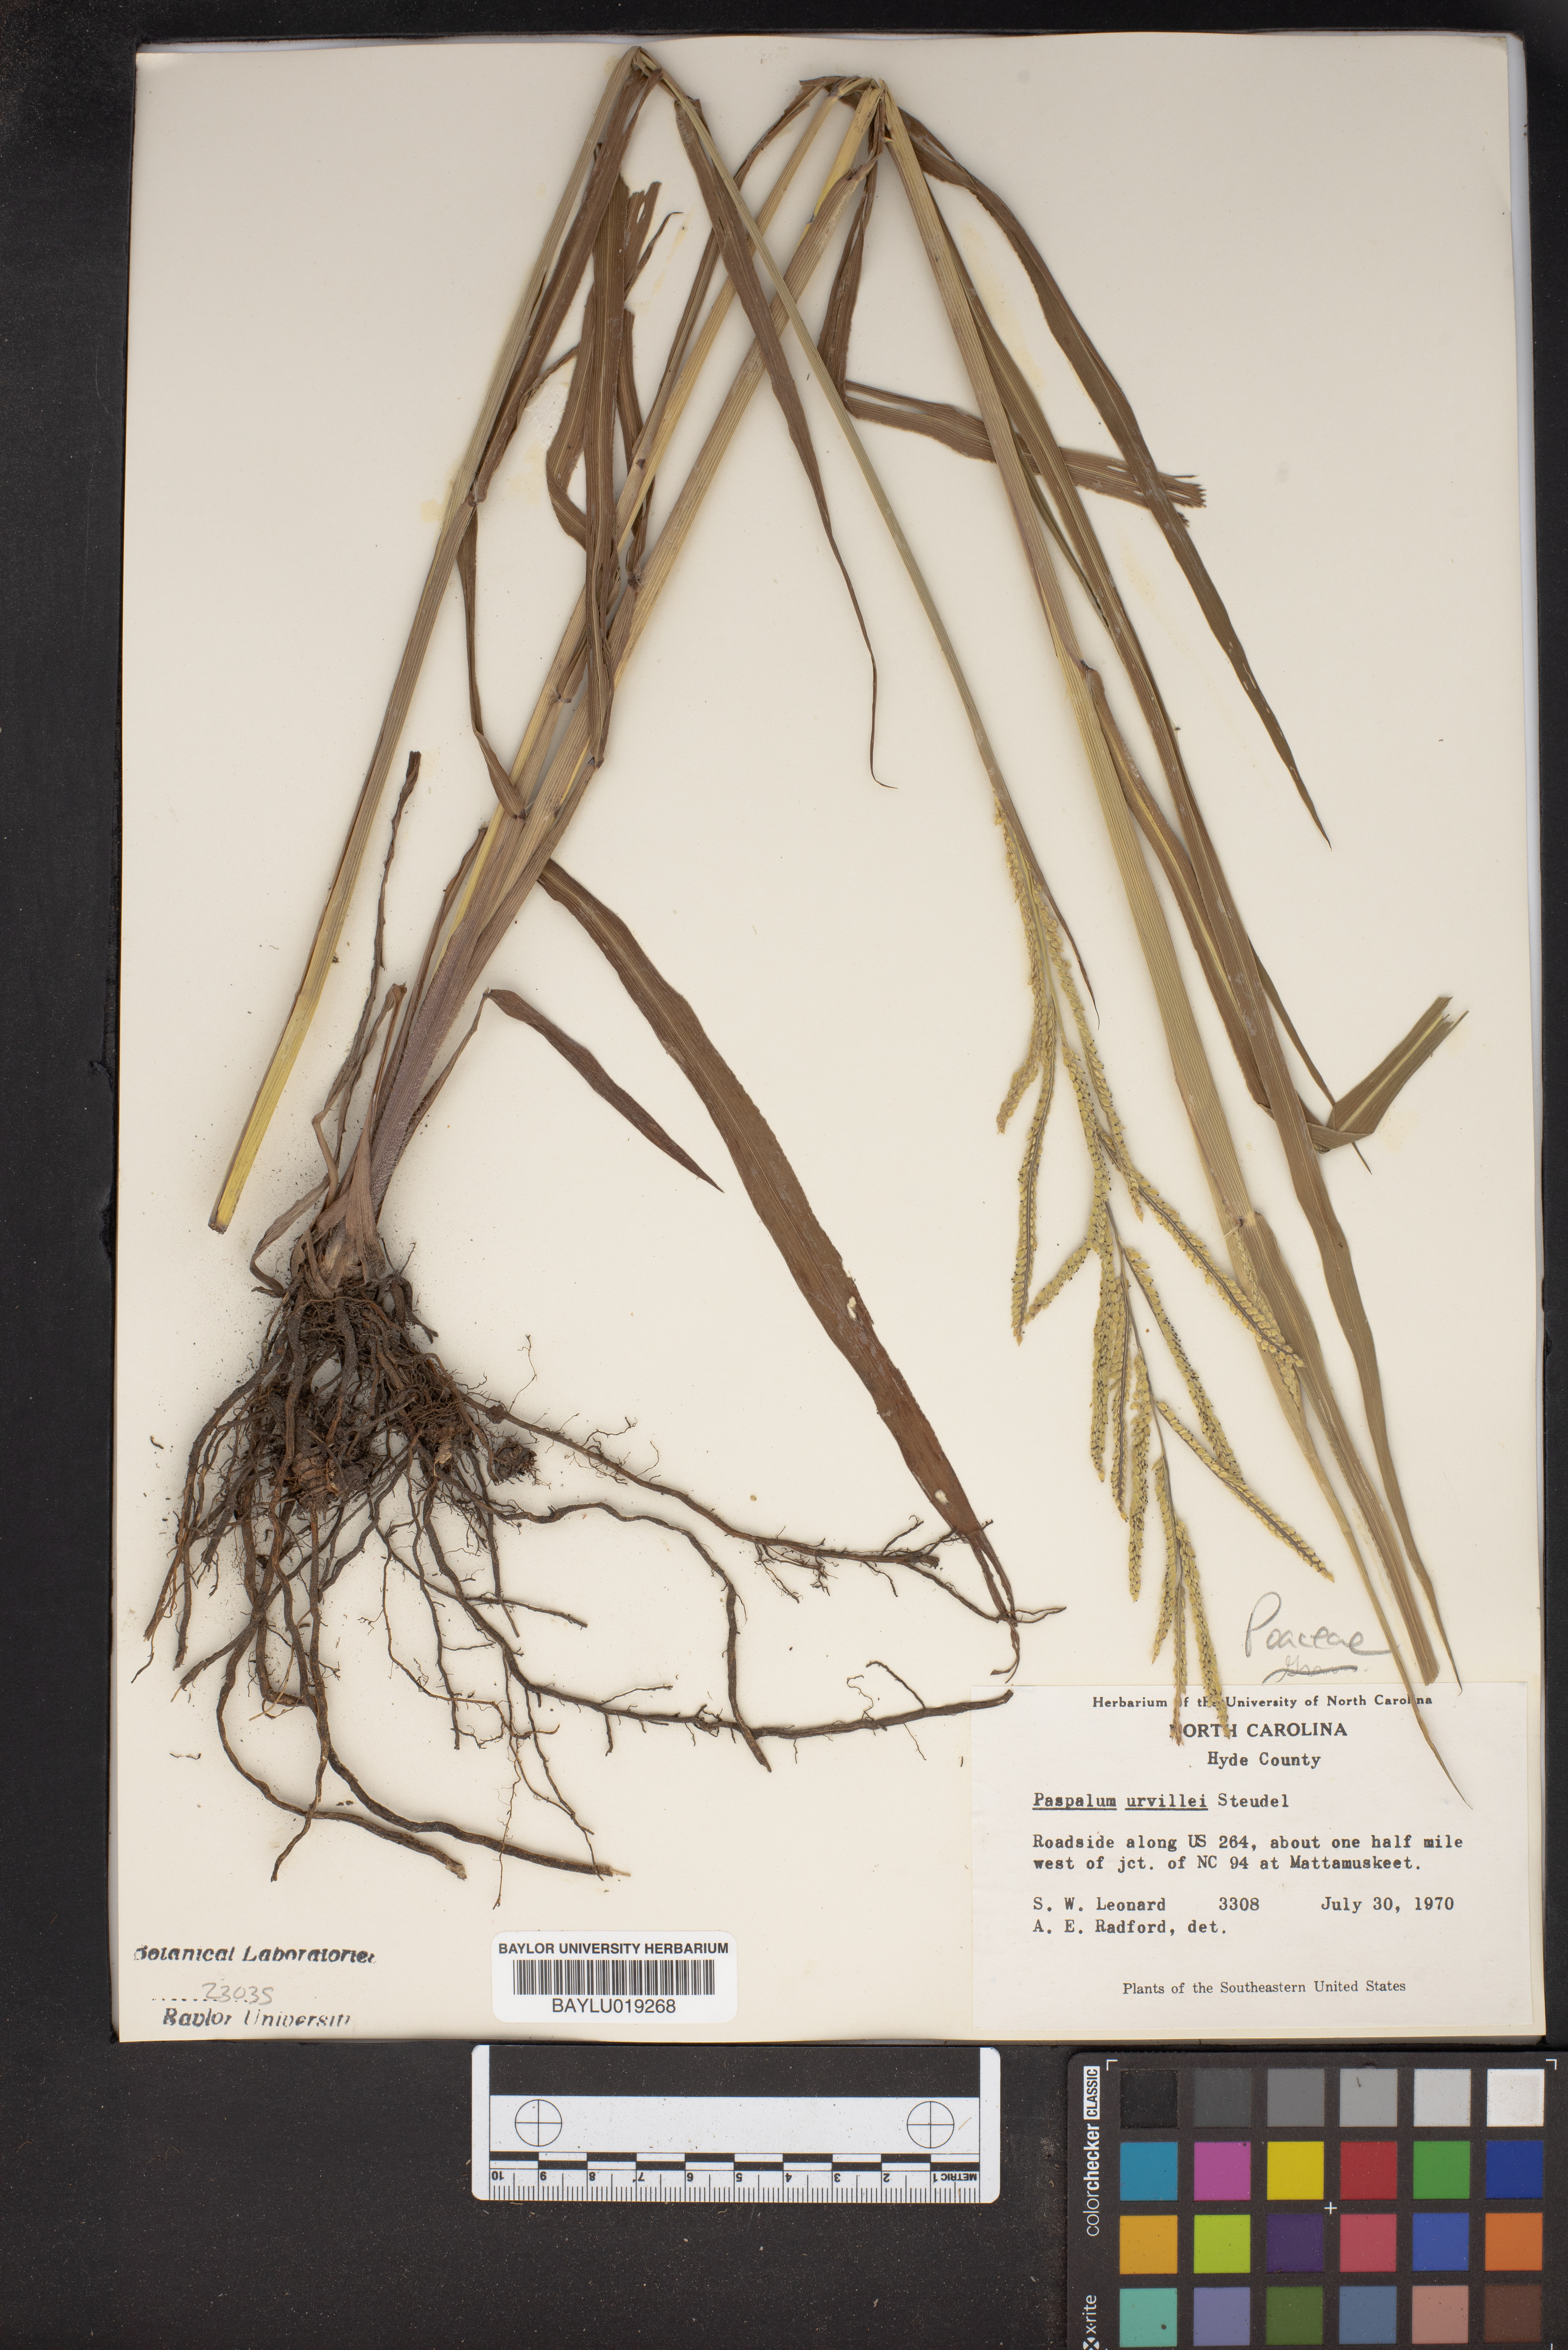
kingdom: Plantae
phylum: Tracheophyta
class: Liliopsida
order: Poales
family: Poaceae
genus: Paspalum
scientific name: Paspalum urvillei
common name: Vasey's grass
